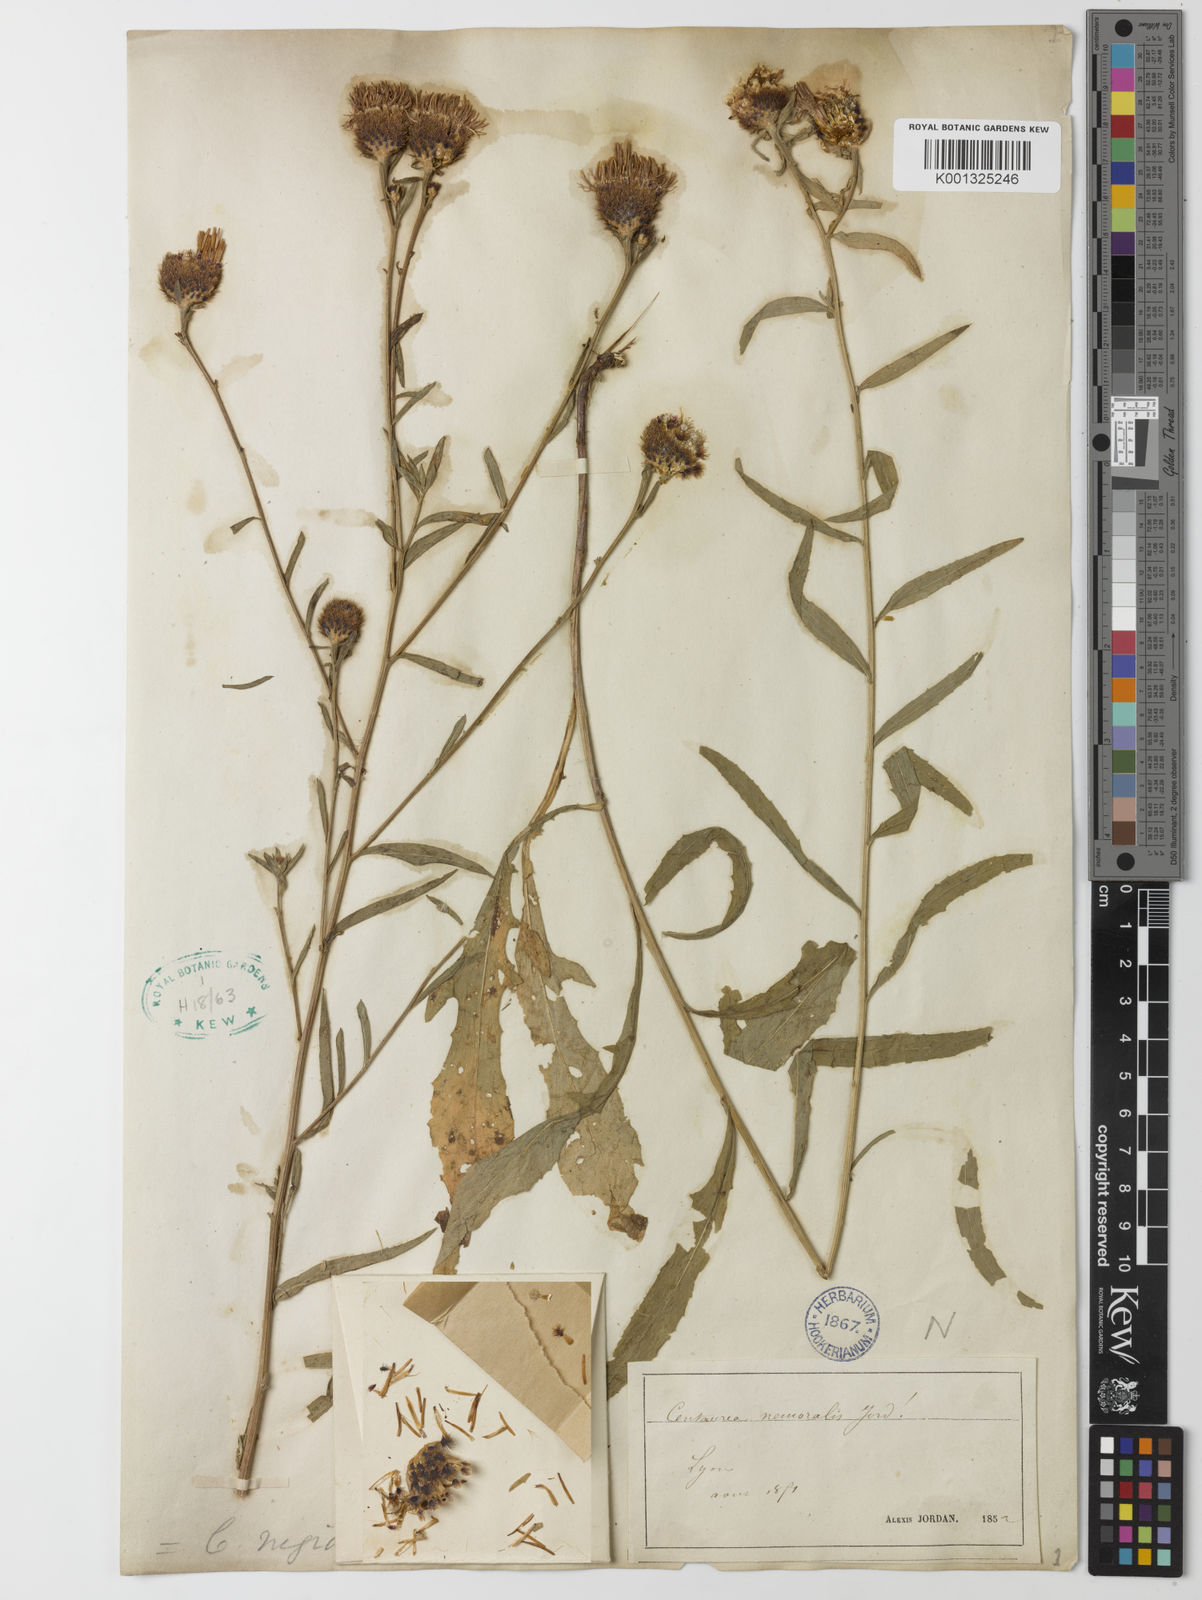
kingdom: Plantae
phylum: Tracheophyta
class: Magnoliopsida
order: Asterales
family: Asteraceae
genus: Centaurea
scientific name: Centaurea debeauxii
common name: Slender knapweed
